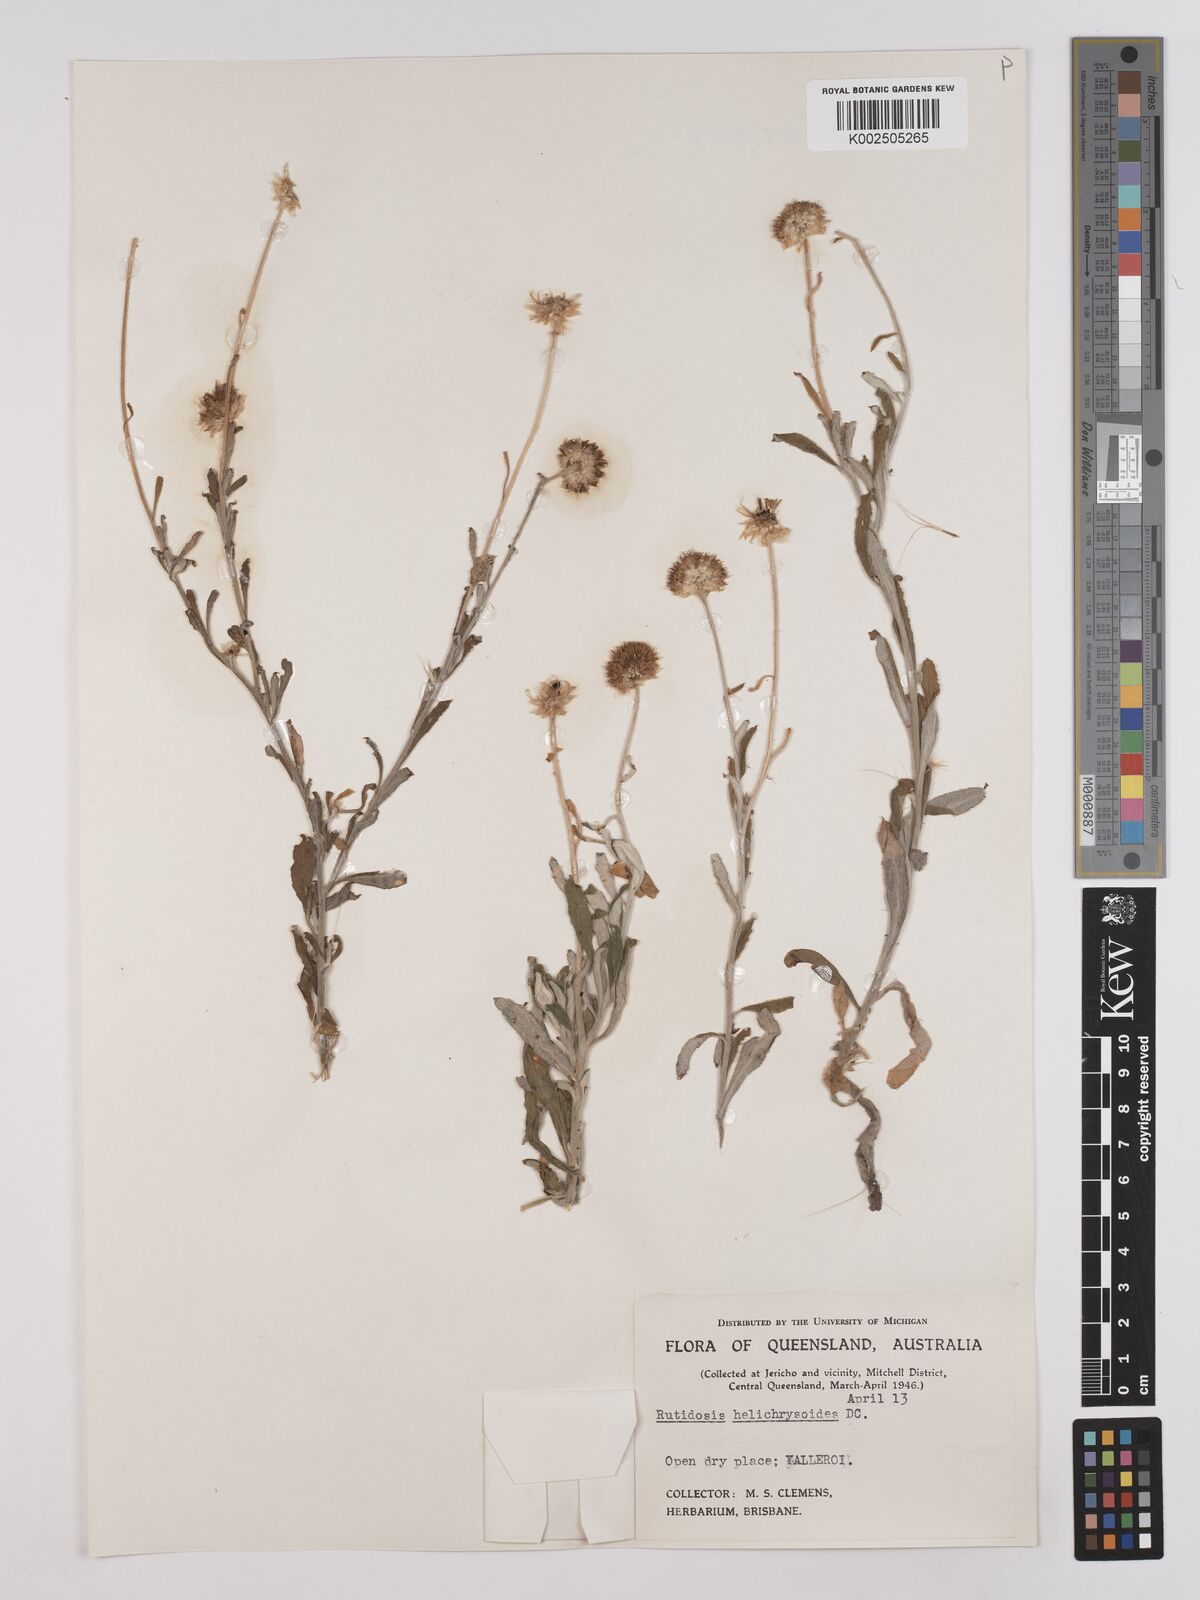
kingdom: Plantae
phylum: Tracheophyta
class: Magnoliopsida
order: Asterales
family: Asteraceae
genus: Rutidosis
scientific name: Rutidosis helichrysoides
